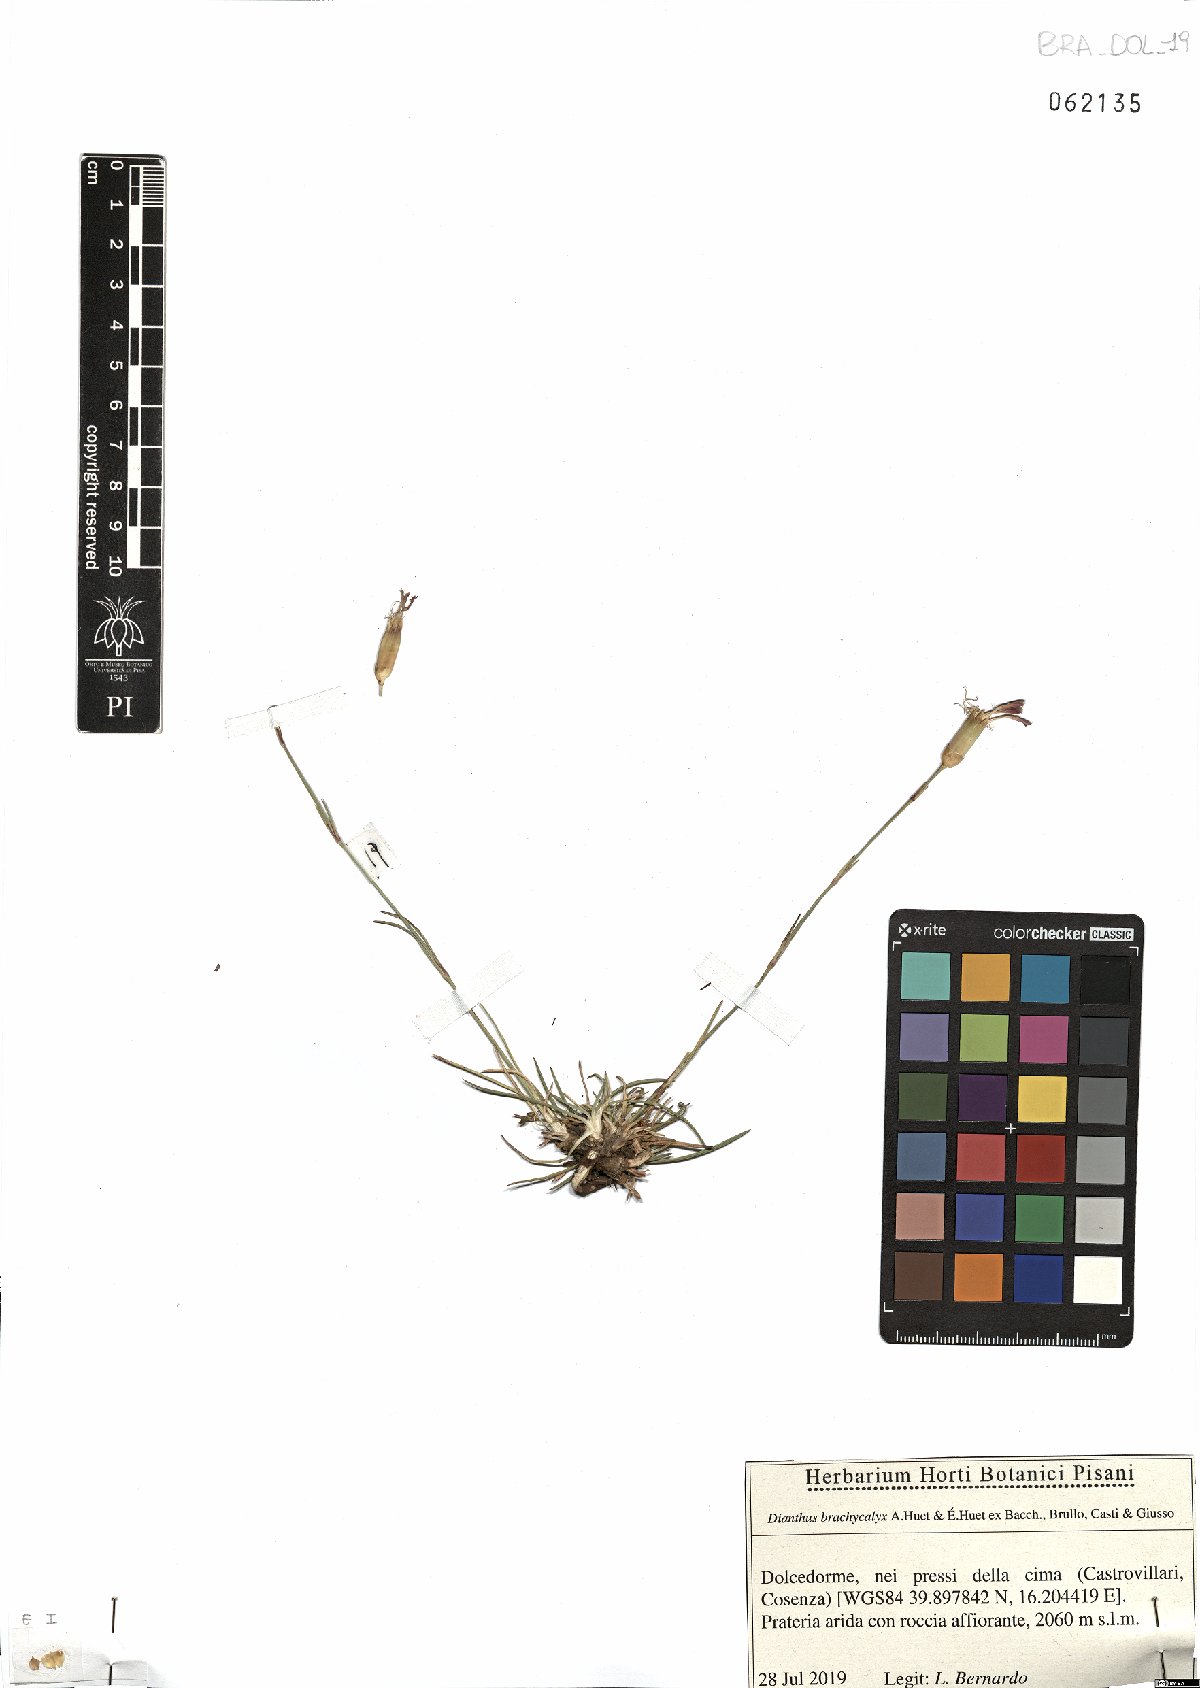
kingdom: Plantae
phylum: Tracheophyta
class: Magnoliopsida
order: Caryophyllales
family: Caryophyllaceae
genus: Dianthus
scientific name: Dianthus brachycalyx
